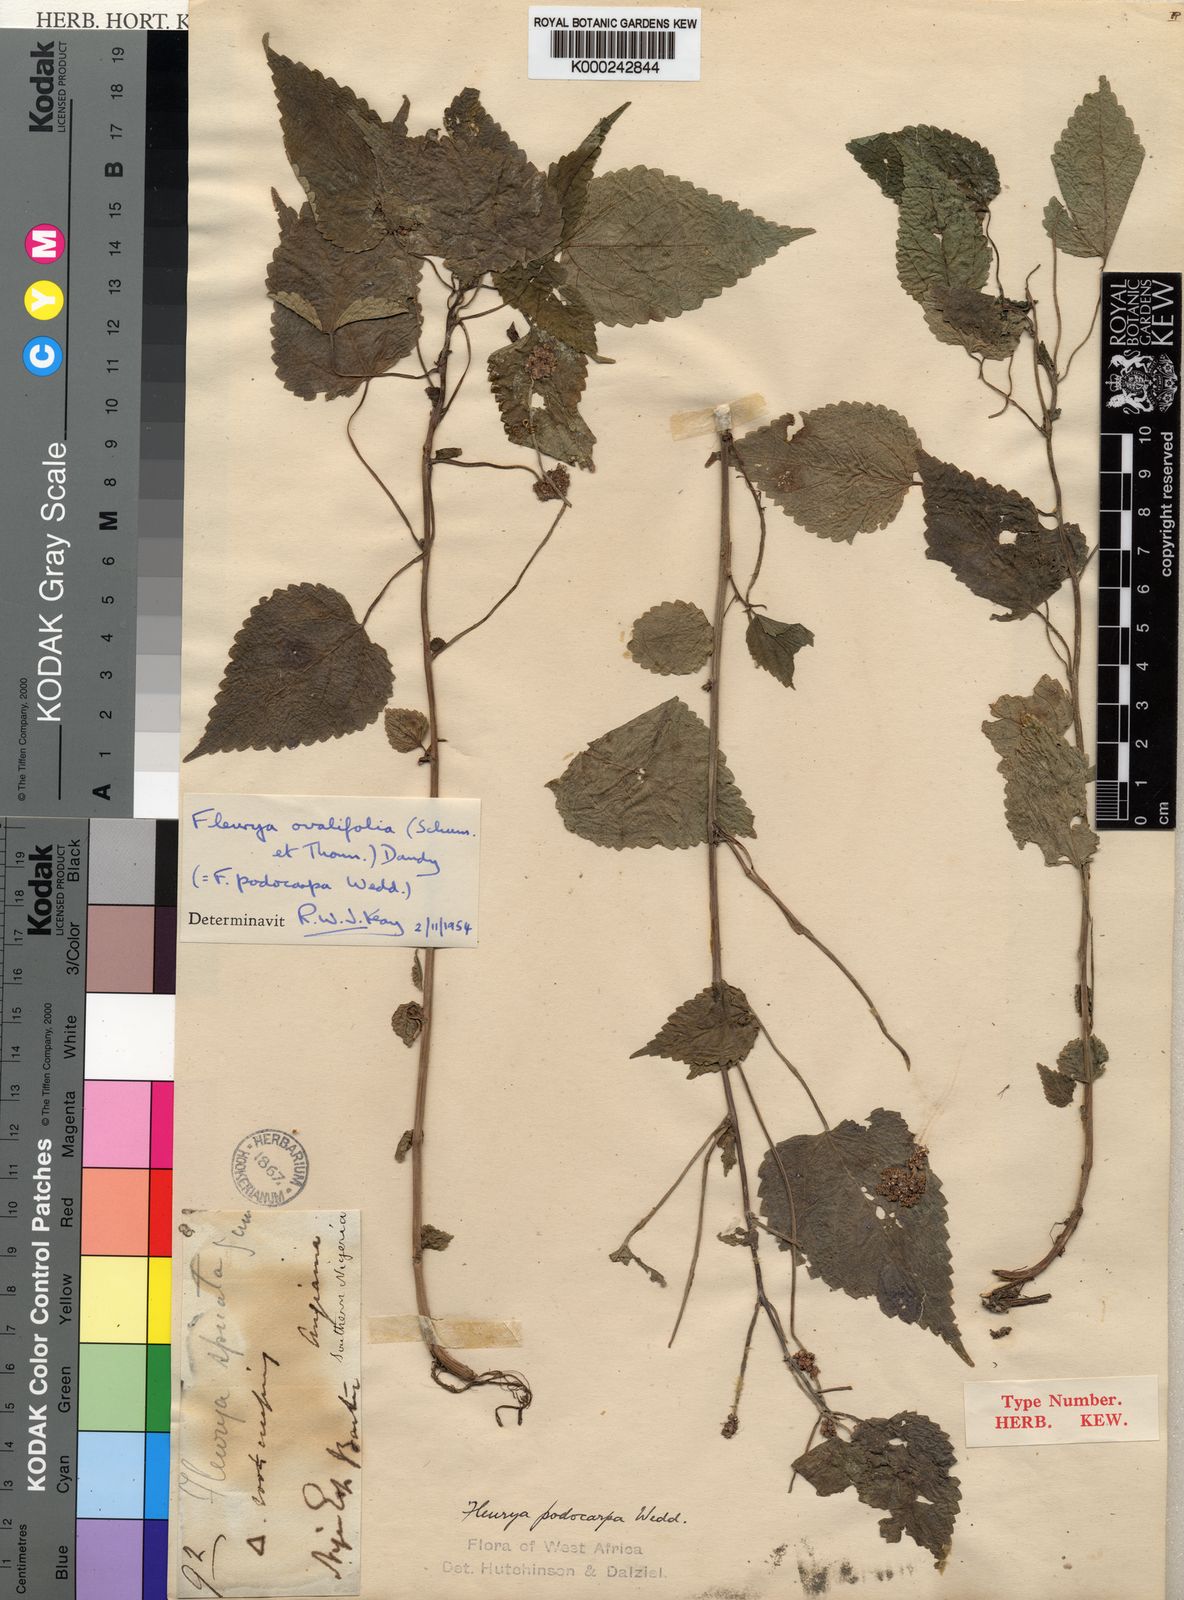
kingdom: Plantae
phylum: Tracheophyta
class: Magnoliopsida
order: Rosales
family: Urticaceae
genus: Laportea
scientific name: Laportea ovalifolia
